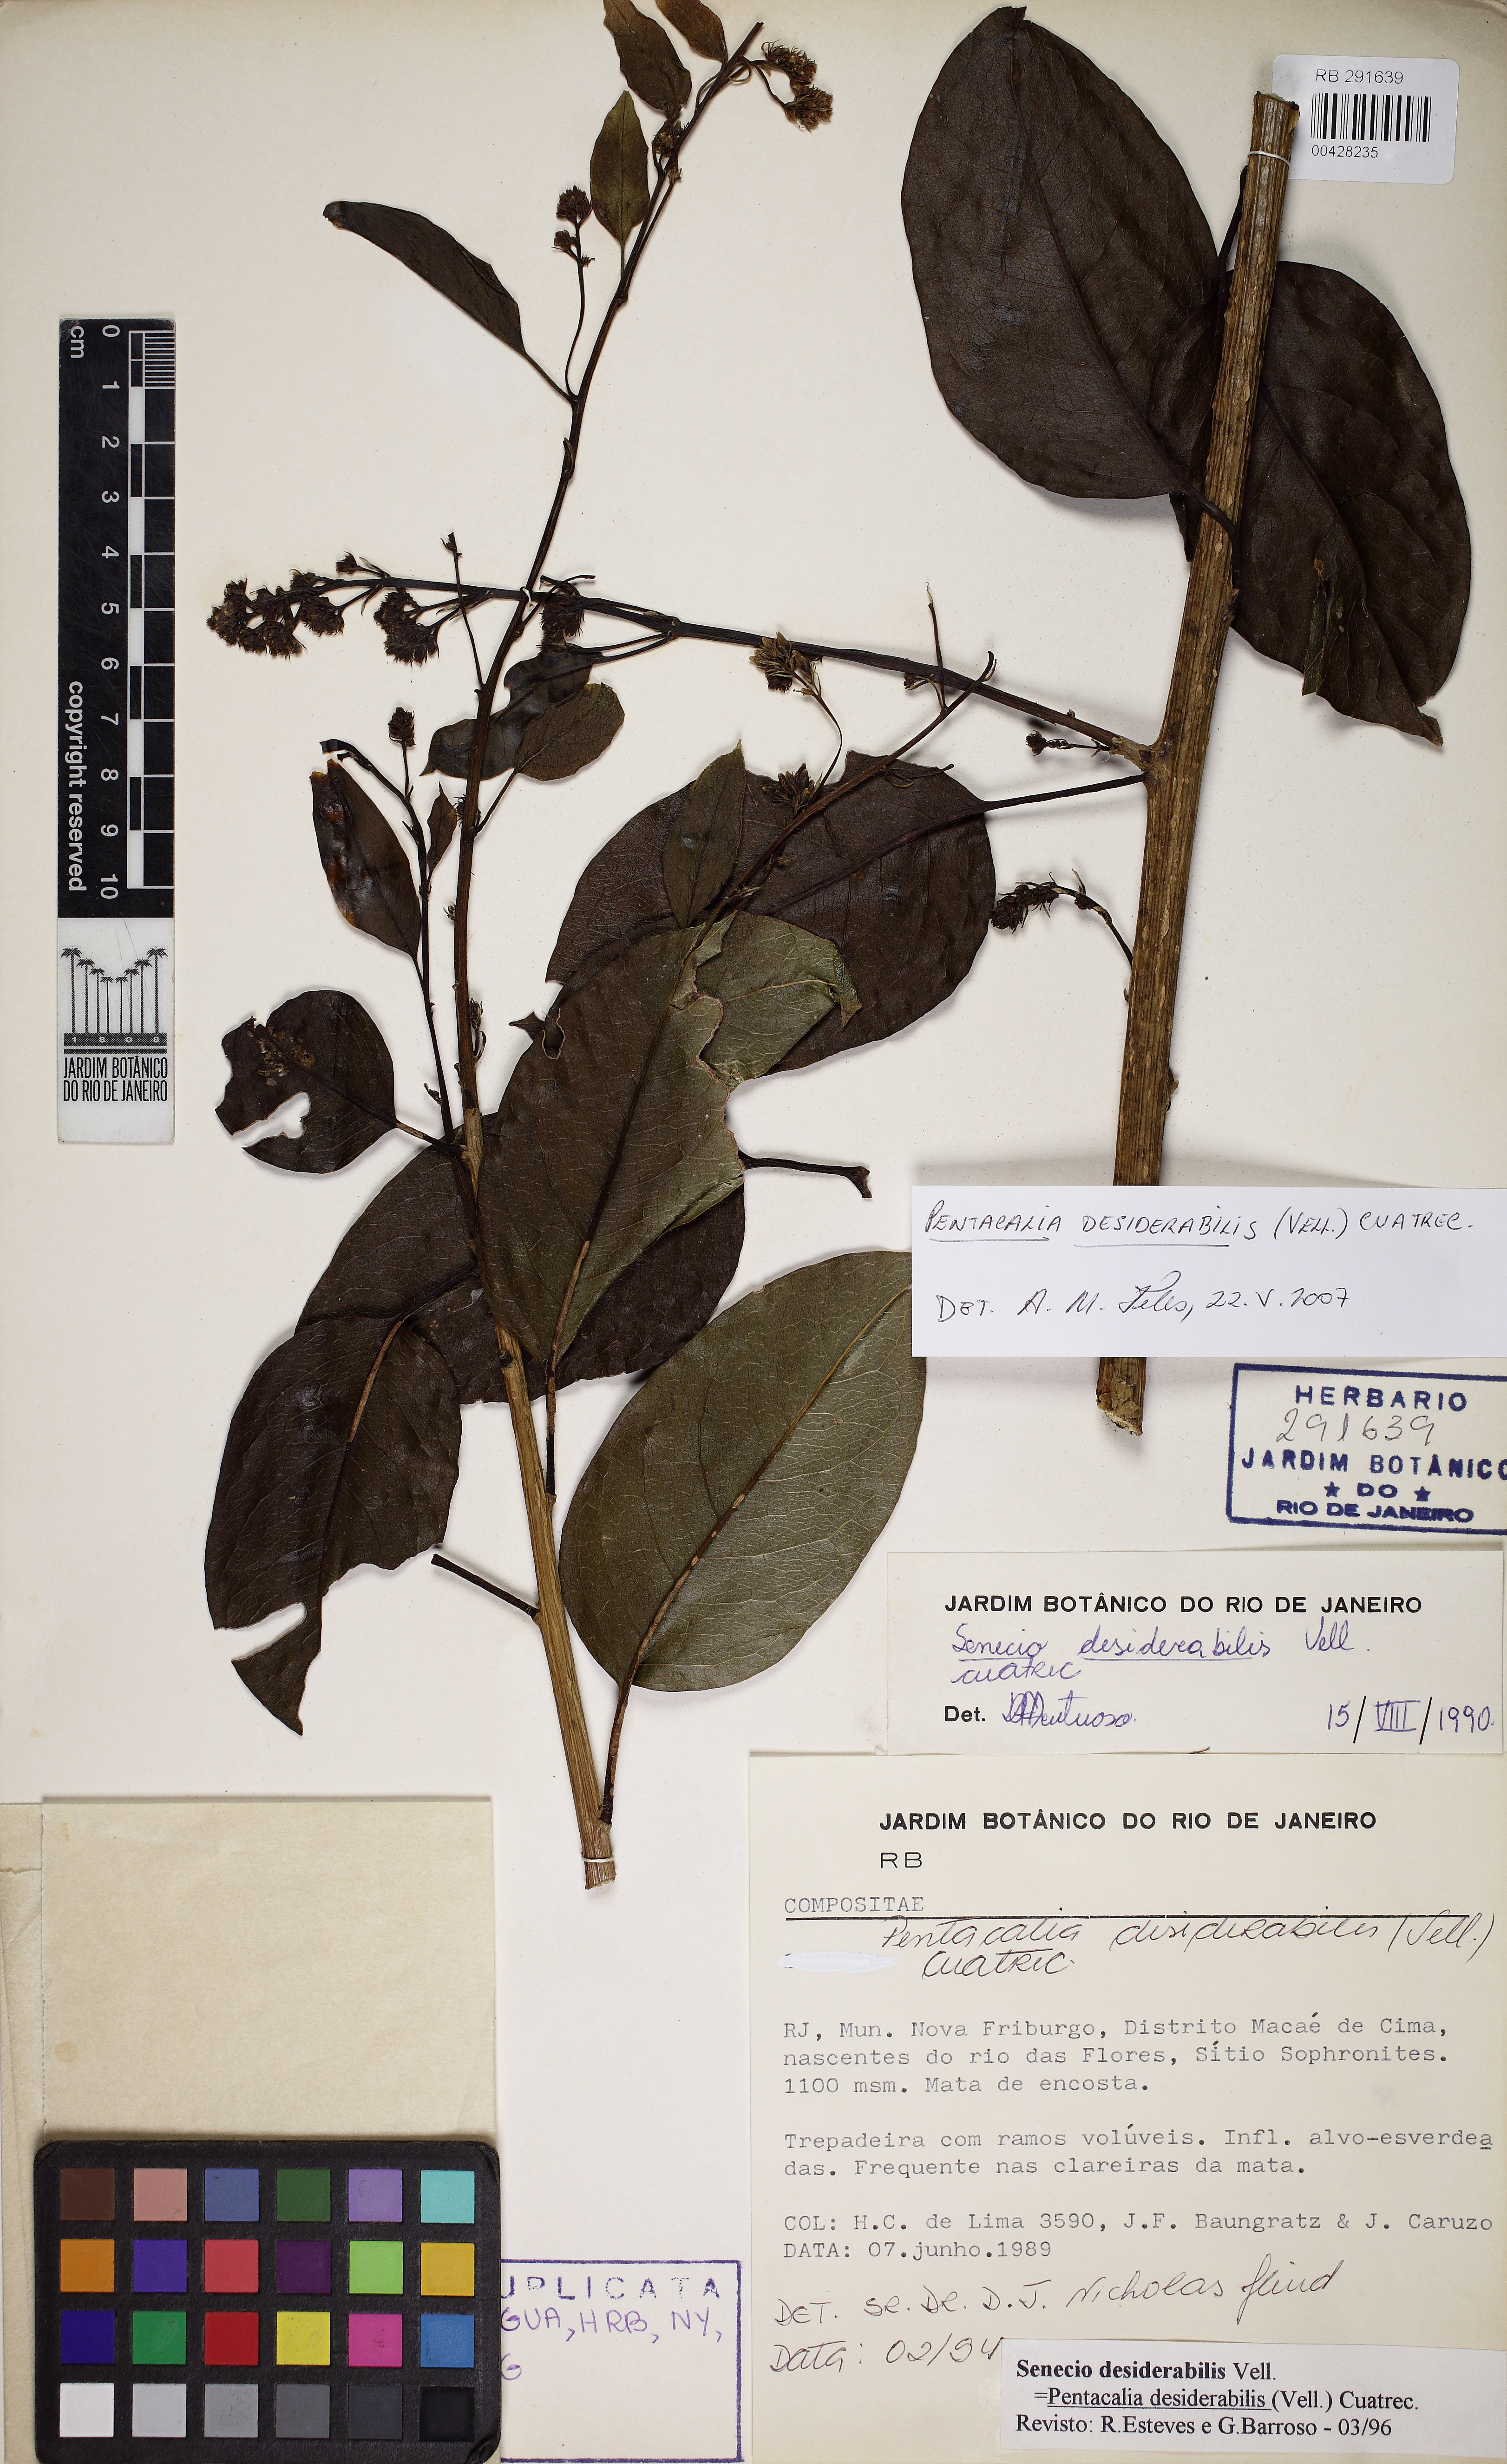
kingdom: Plantae
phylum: Tracheophyta
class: Magnoliopsida
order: Asterales
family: Asteraceae
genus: Pentacalia
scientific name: Pentacalia desiderabilis
